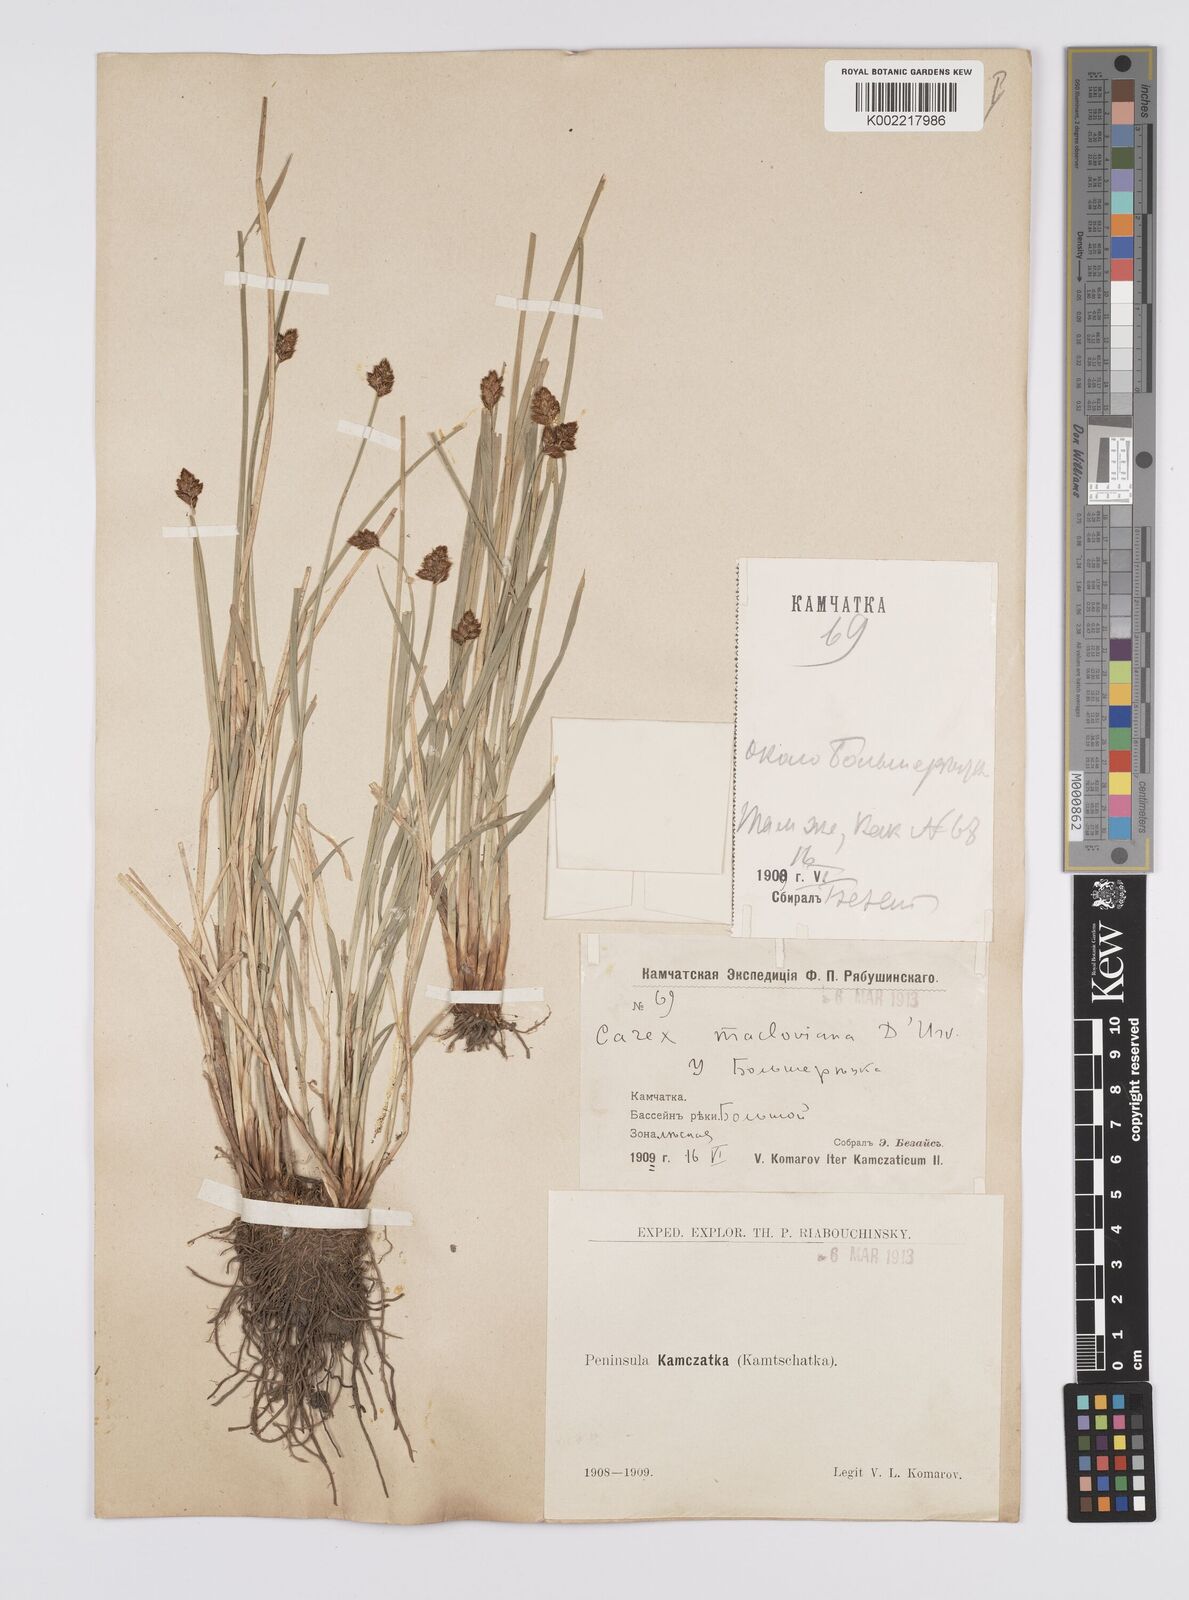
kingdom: Plantae
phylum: Tracheophyta
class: Liliopsida
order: Poales
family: Cyperaceae
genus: Carex
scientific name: Carex macloviana
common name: Falkland island sedge
